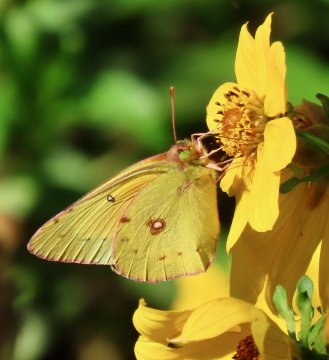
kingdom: Animalia
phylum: Arthropoda
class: Insecta
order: Lepidoptera
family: Pieridae
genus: Colias
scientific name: Colias eurytheme
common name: Orange Sulphur
